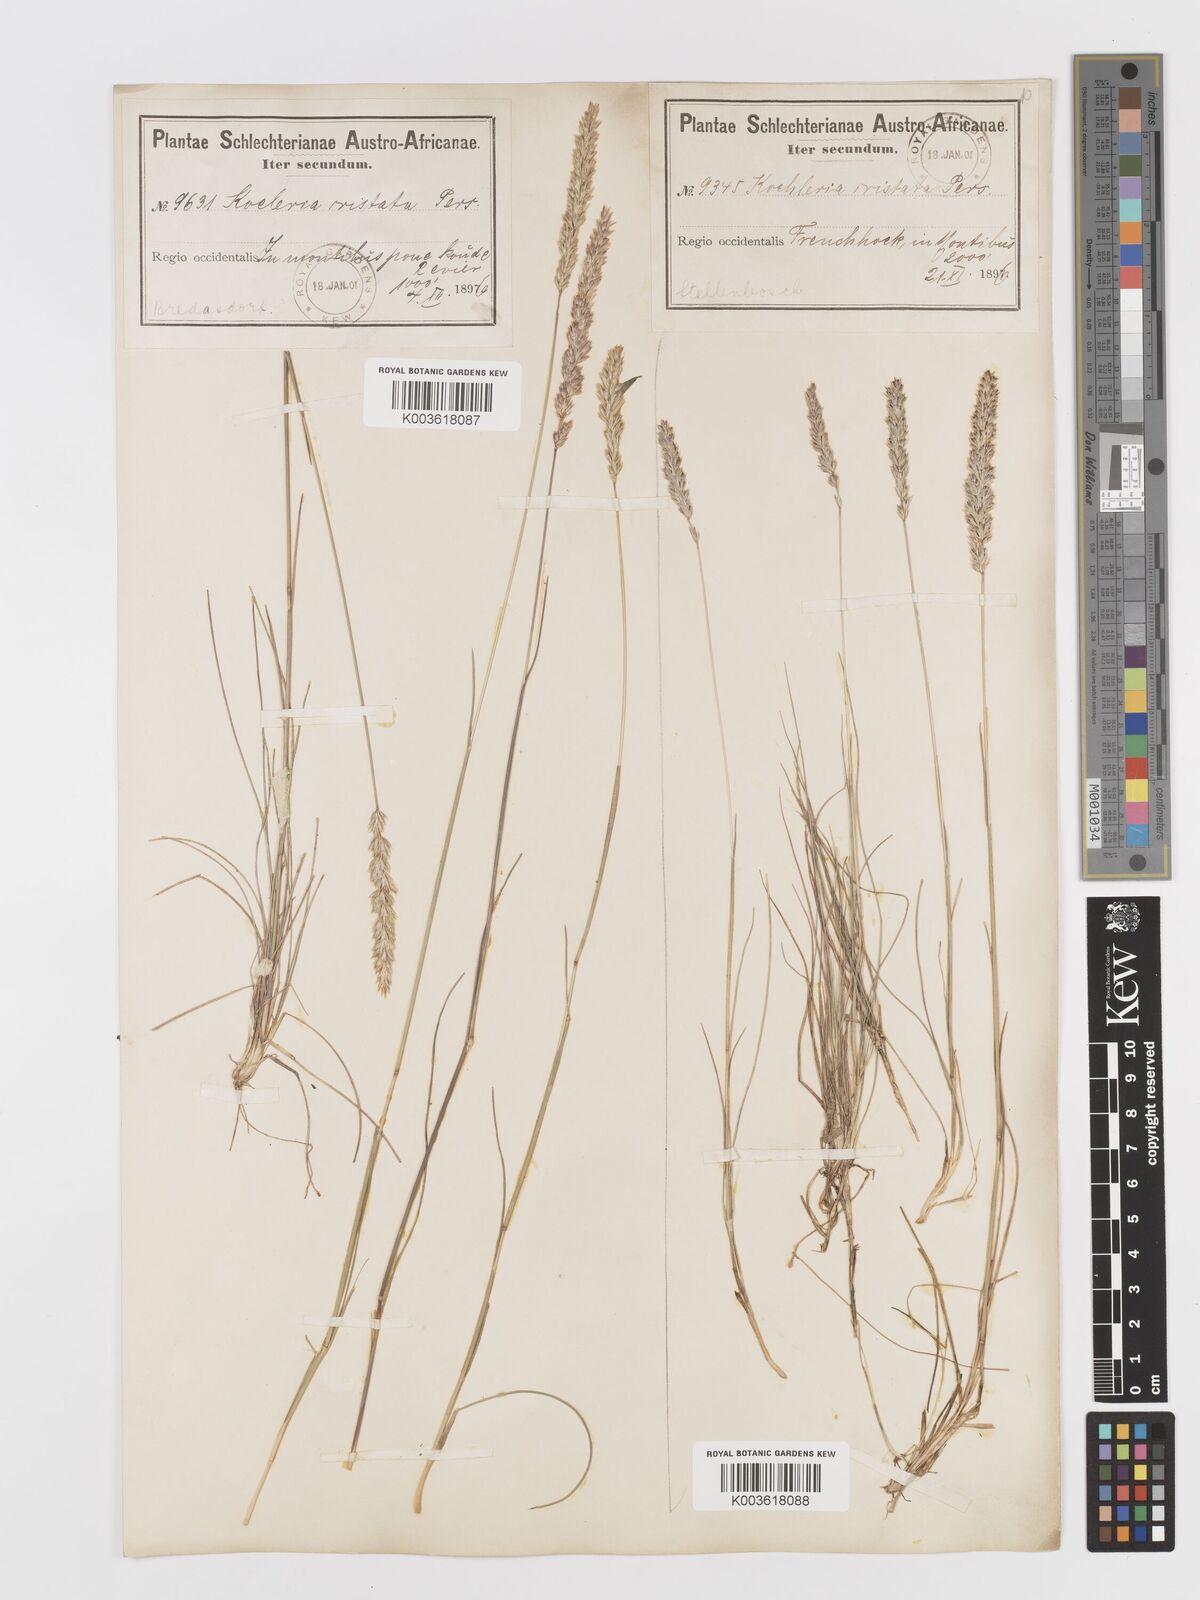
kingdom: Plantae
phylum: Tracheophyta
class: Liliopsida
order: Poales
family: Poaceae
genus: Koeleria
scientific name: Koeleria capensis
